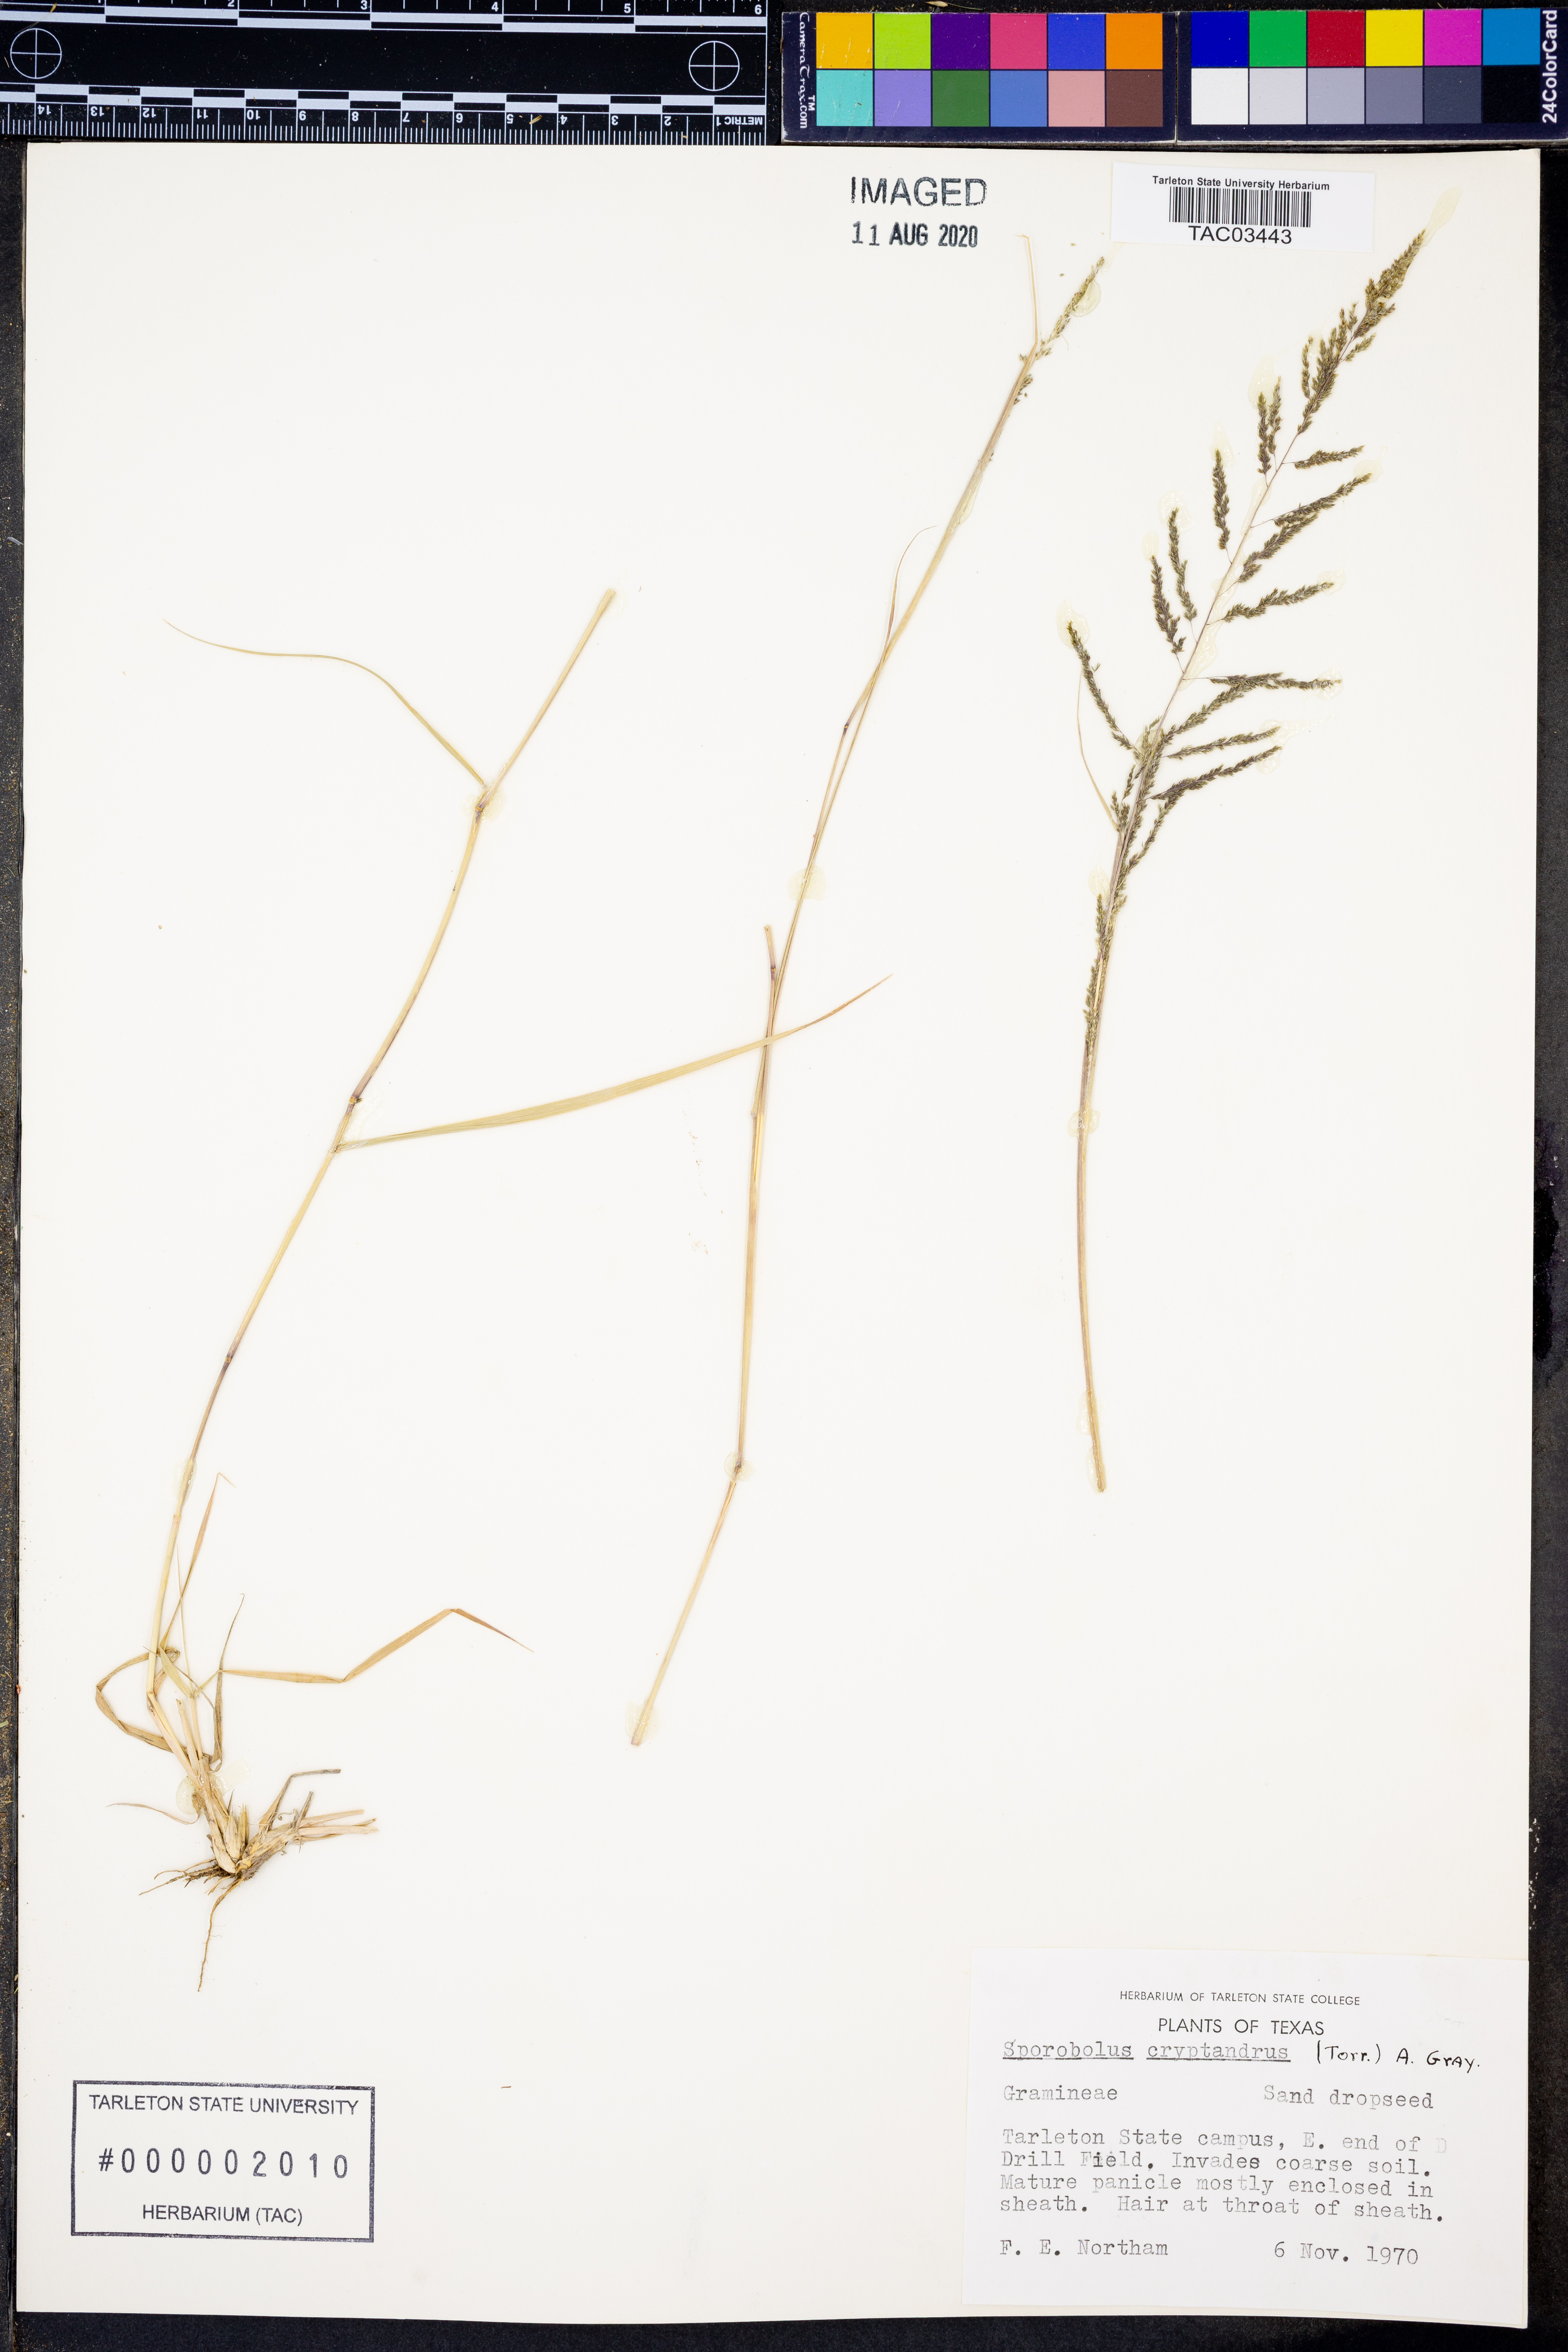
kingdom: Plantae
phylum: Tracheophyta
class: Liliopsida
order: Poales
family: Poaceae
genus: Sporobolus
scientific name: Sporobolus cryptandrus
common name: Sand dropseed
